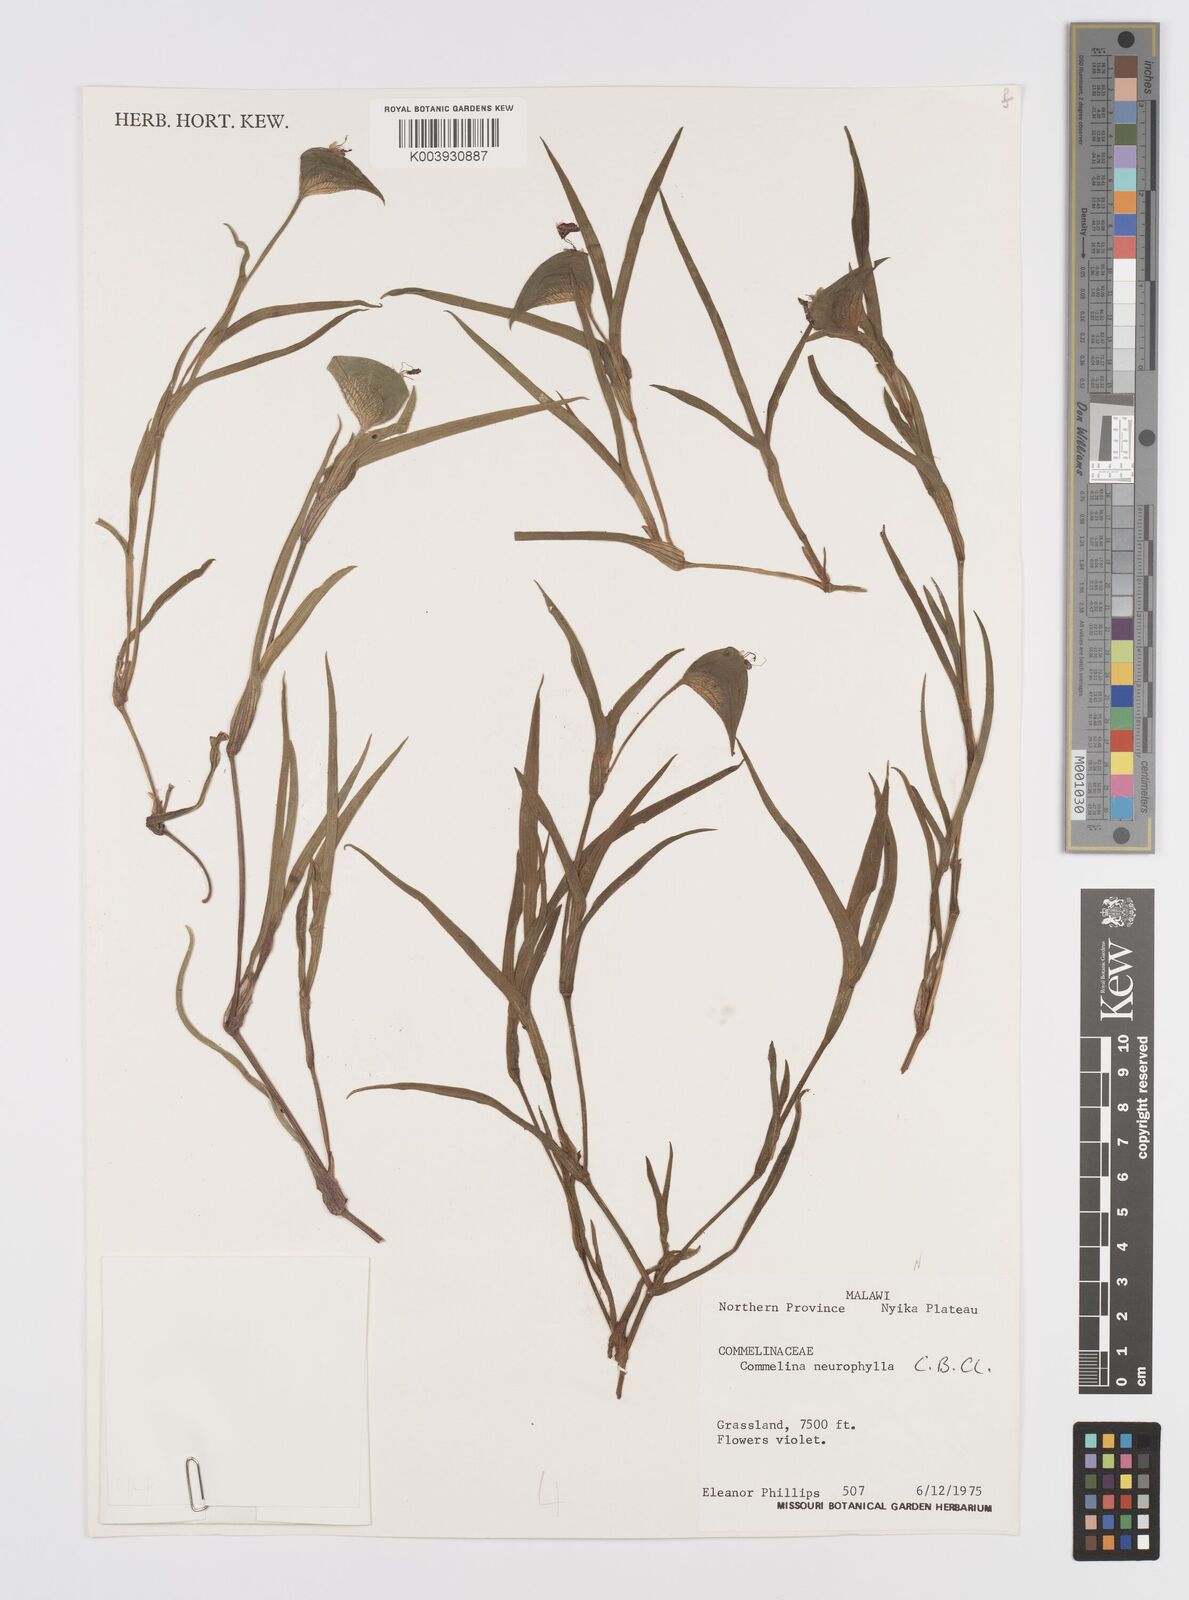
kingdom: Plantae
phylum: Tracheophyta
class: Liliopsida
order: Commelinales
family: Commelinaceae
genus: Commelina
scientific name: Commelina neurophylla
